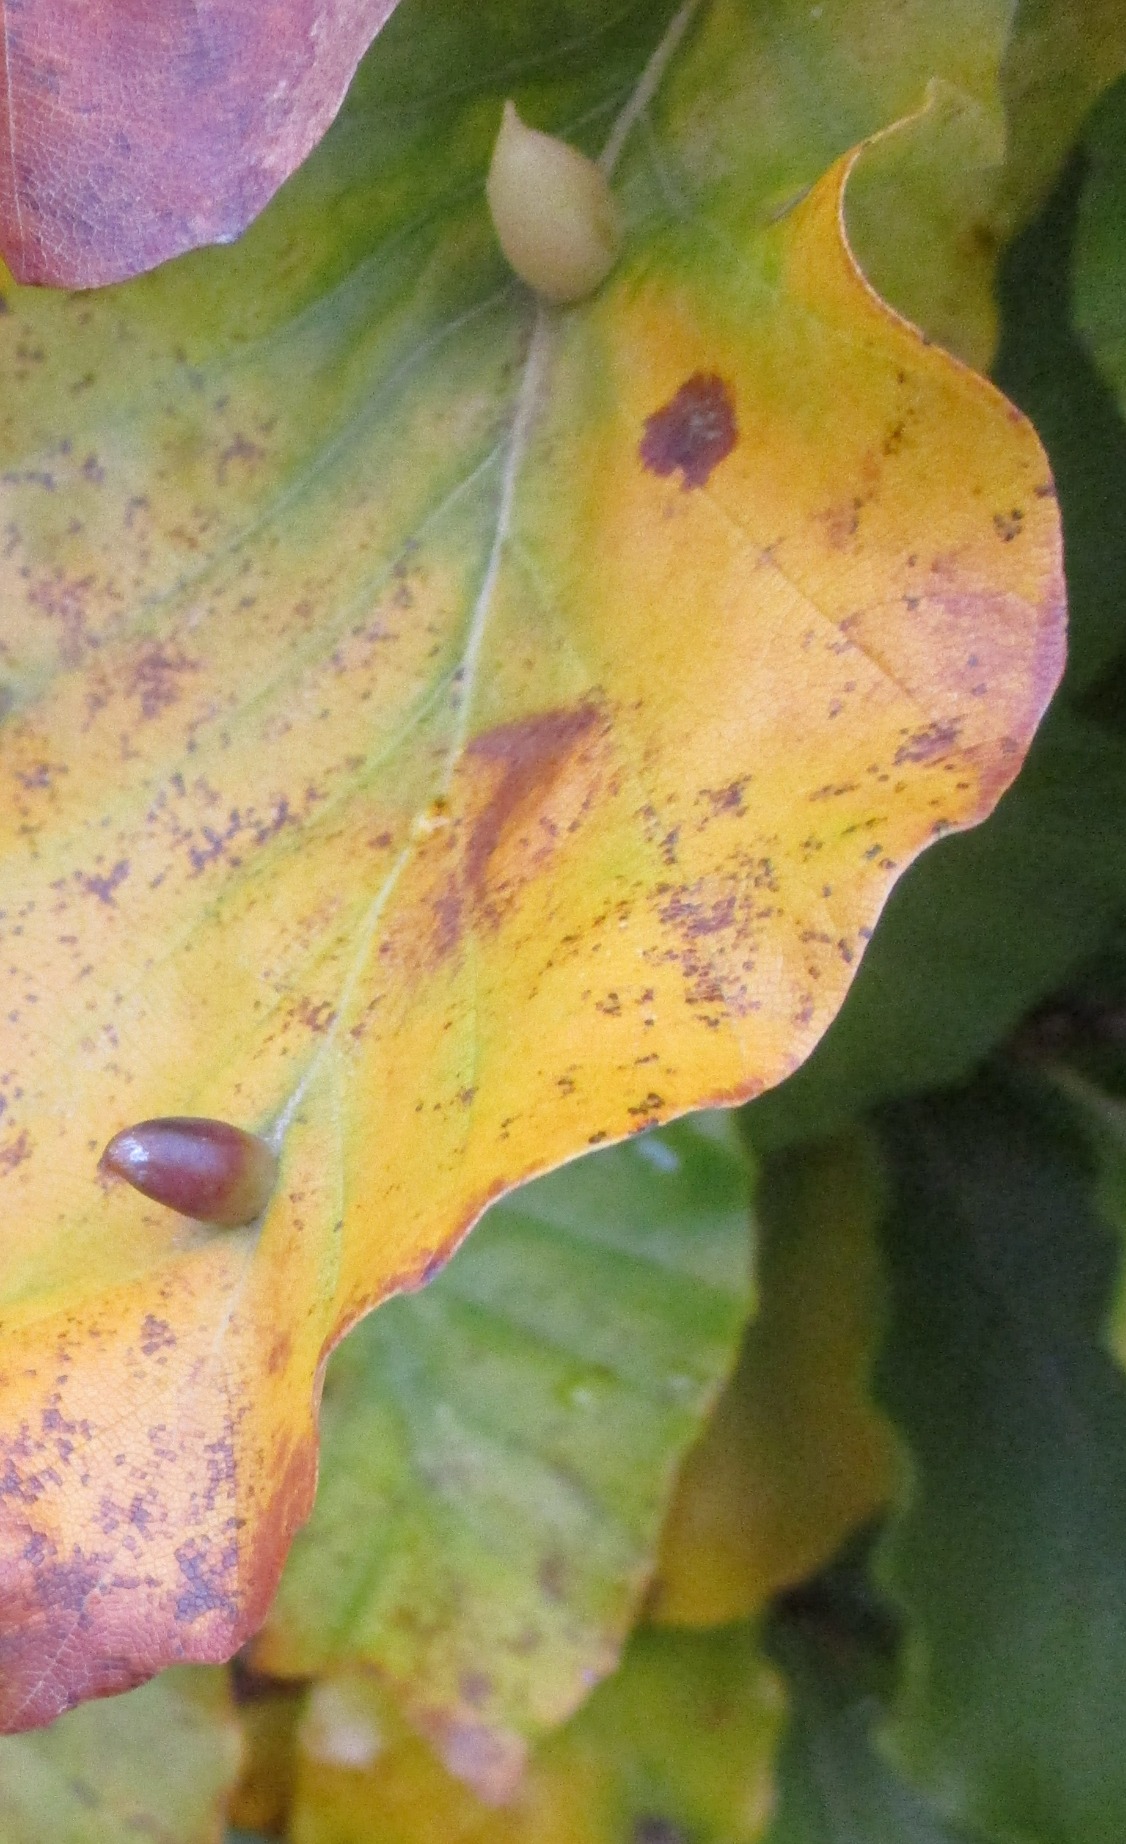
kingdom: Animalia
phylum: Arthropoda
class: Insecta
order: Diptera
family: Cecidomyiidae
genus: Mikiola
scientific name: Mikiola fagi
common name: Bøgegalmyg
